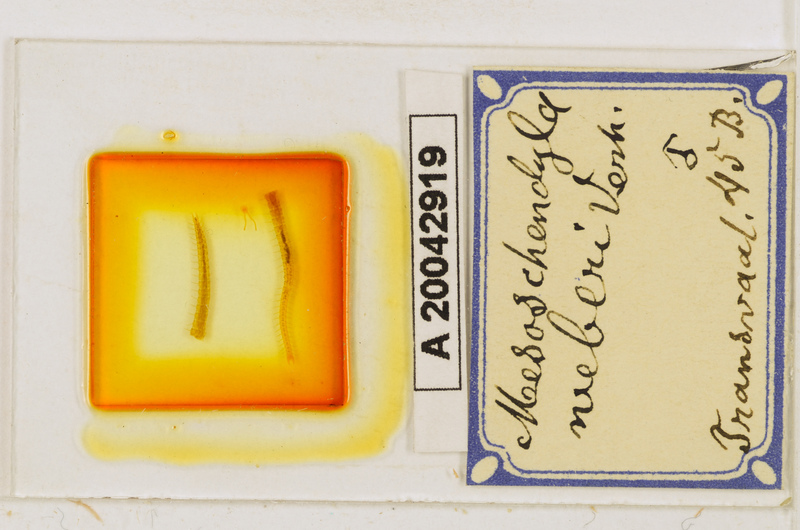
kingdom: Animalia
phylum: Arthropoda
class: Chilopoda
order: Geophilomorpha
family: Schendylidae
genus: Mesoschendyla
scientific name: Mesoschendyla weberi
